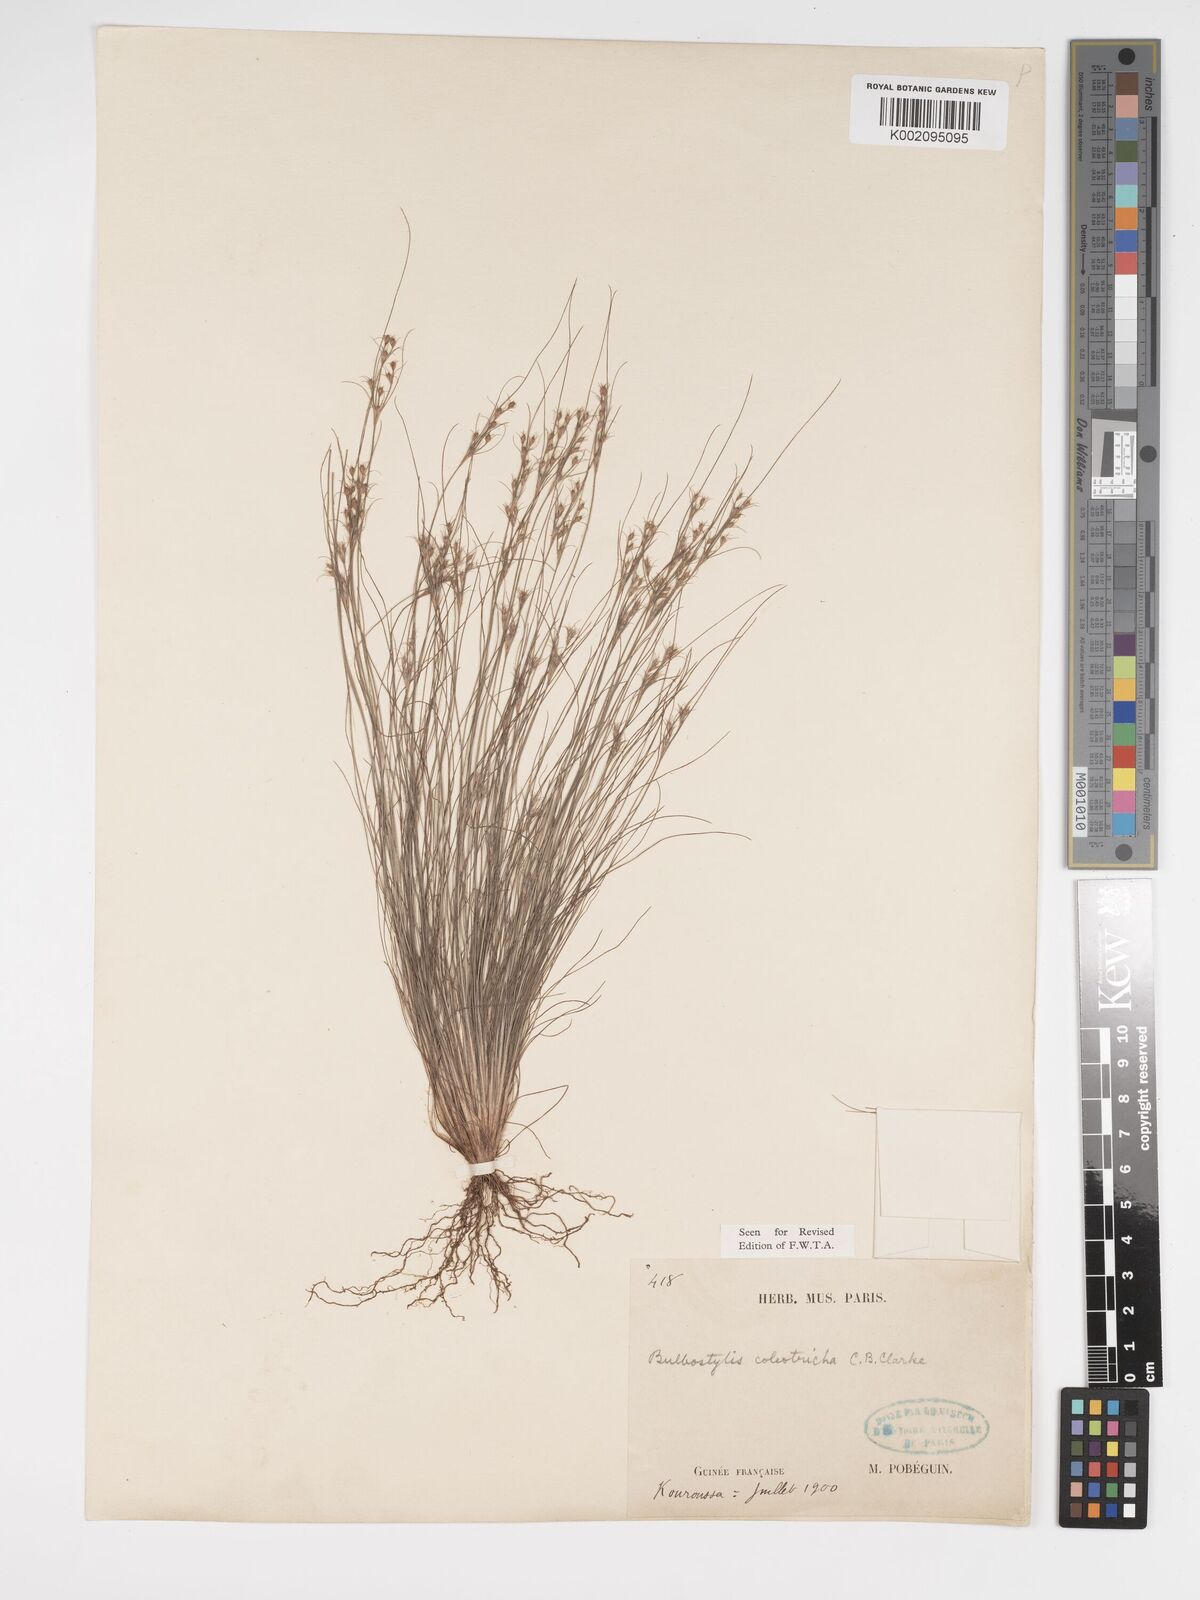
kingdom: Plantae
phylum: Tracheophyta
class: Liliopsida
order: Poales
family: Cyperaceae
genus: Bulbostylis
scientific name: Bulbostylis coleotricha
